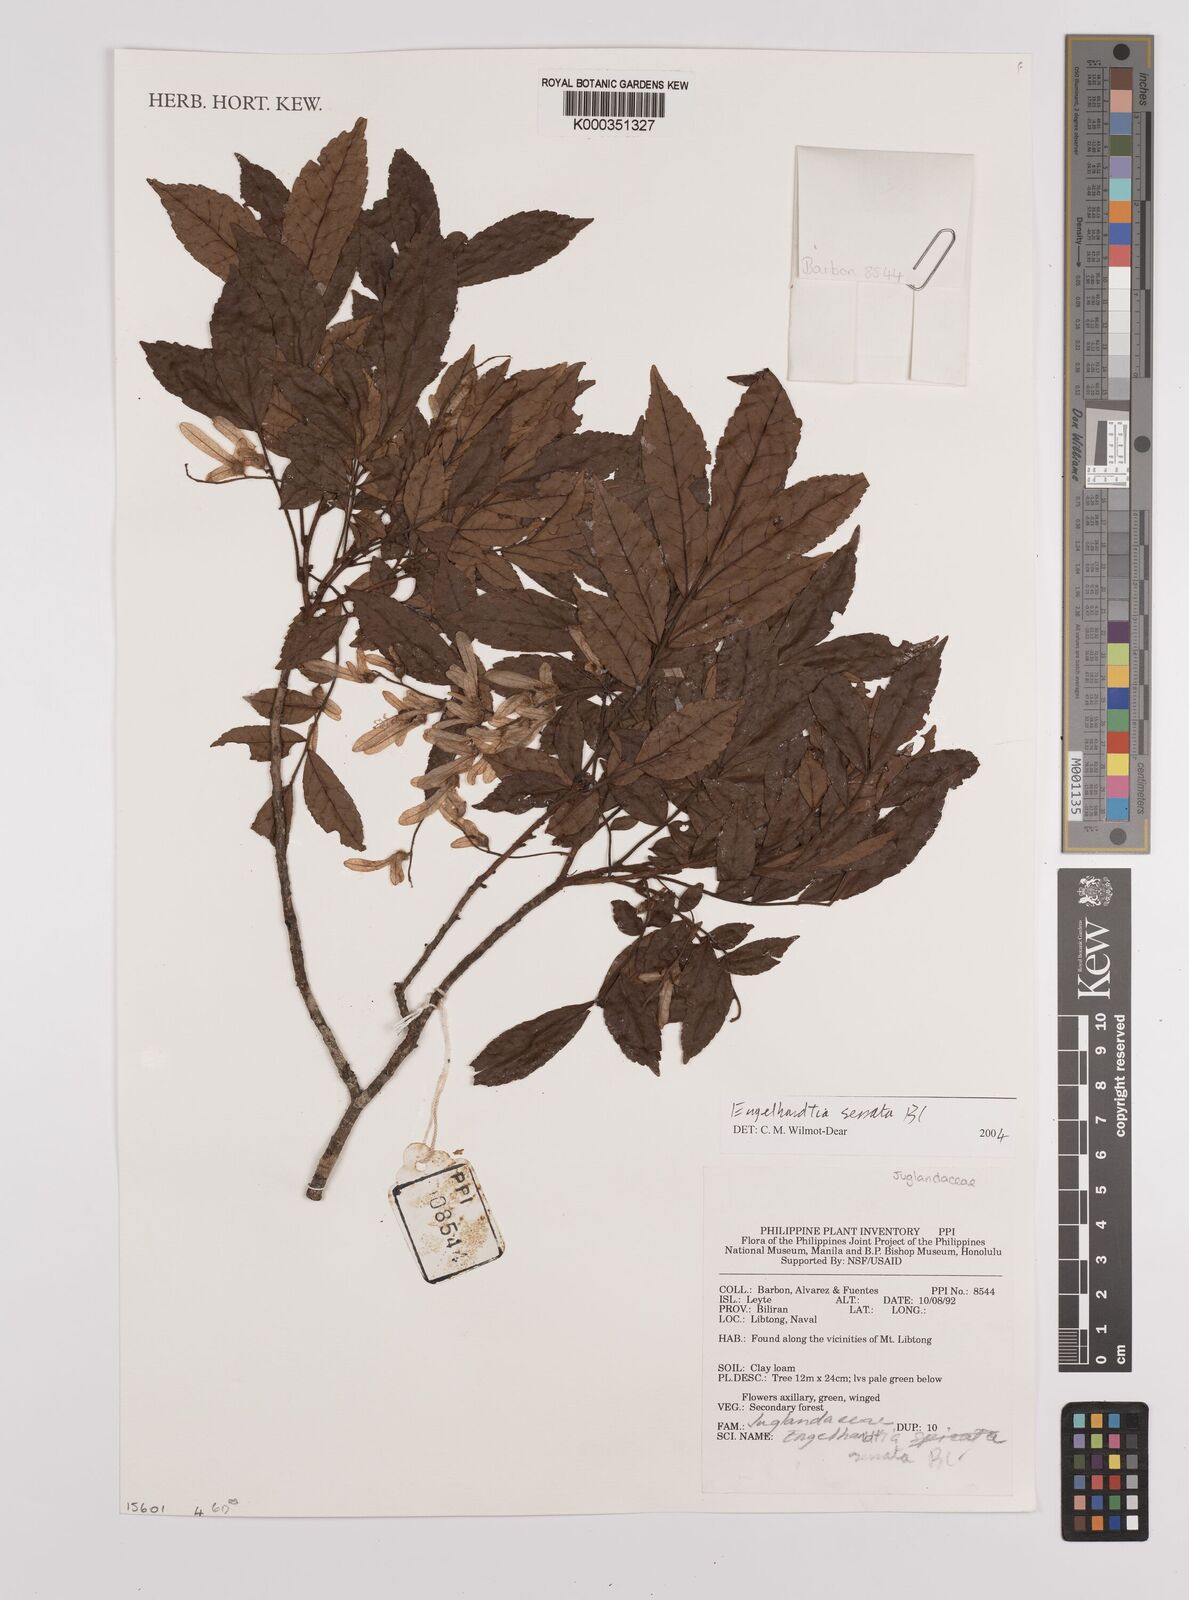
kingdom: Plantae
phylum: Tracheophyta
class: Magnoliopsida
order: Fagales
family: Juglandaceae
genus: Engelhardia
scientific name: Engelhardia serrata
